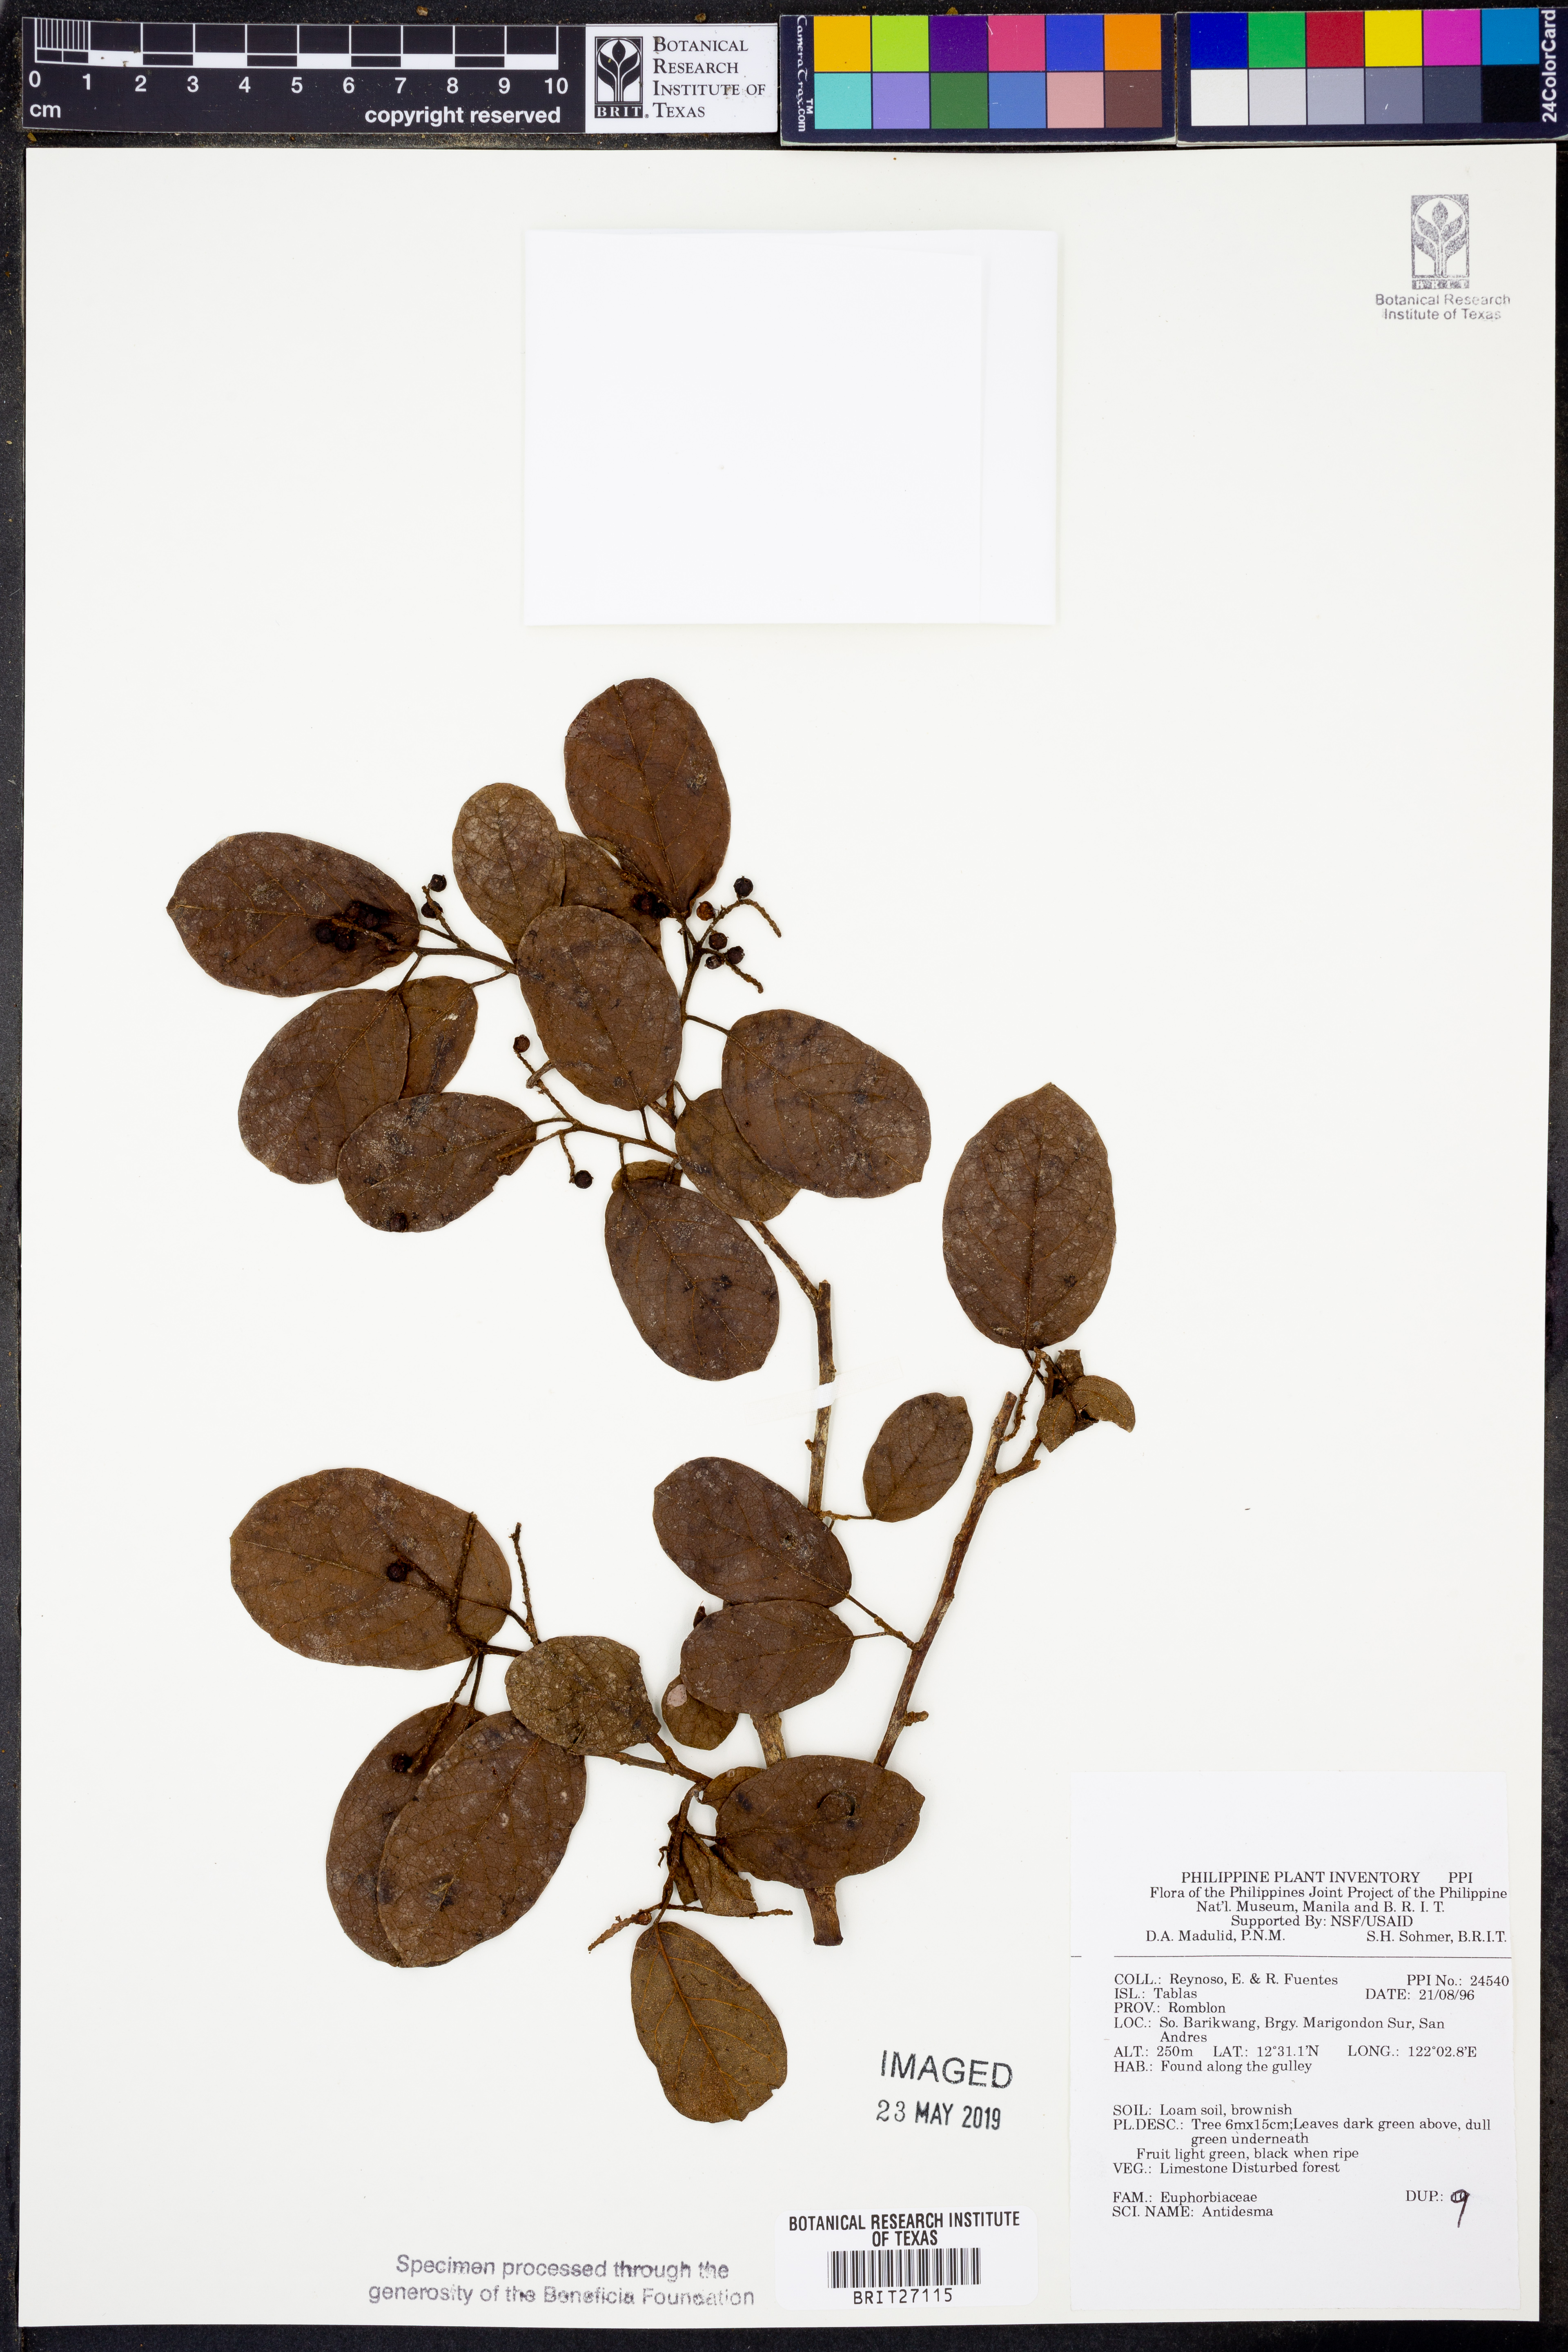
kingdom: Plantae
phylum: Tracheophyta
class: Magnoliopsida
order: Malpighiales
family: Phyllanthaceae
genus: Antidesma
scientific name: Antidesma
